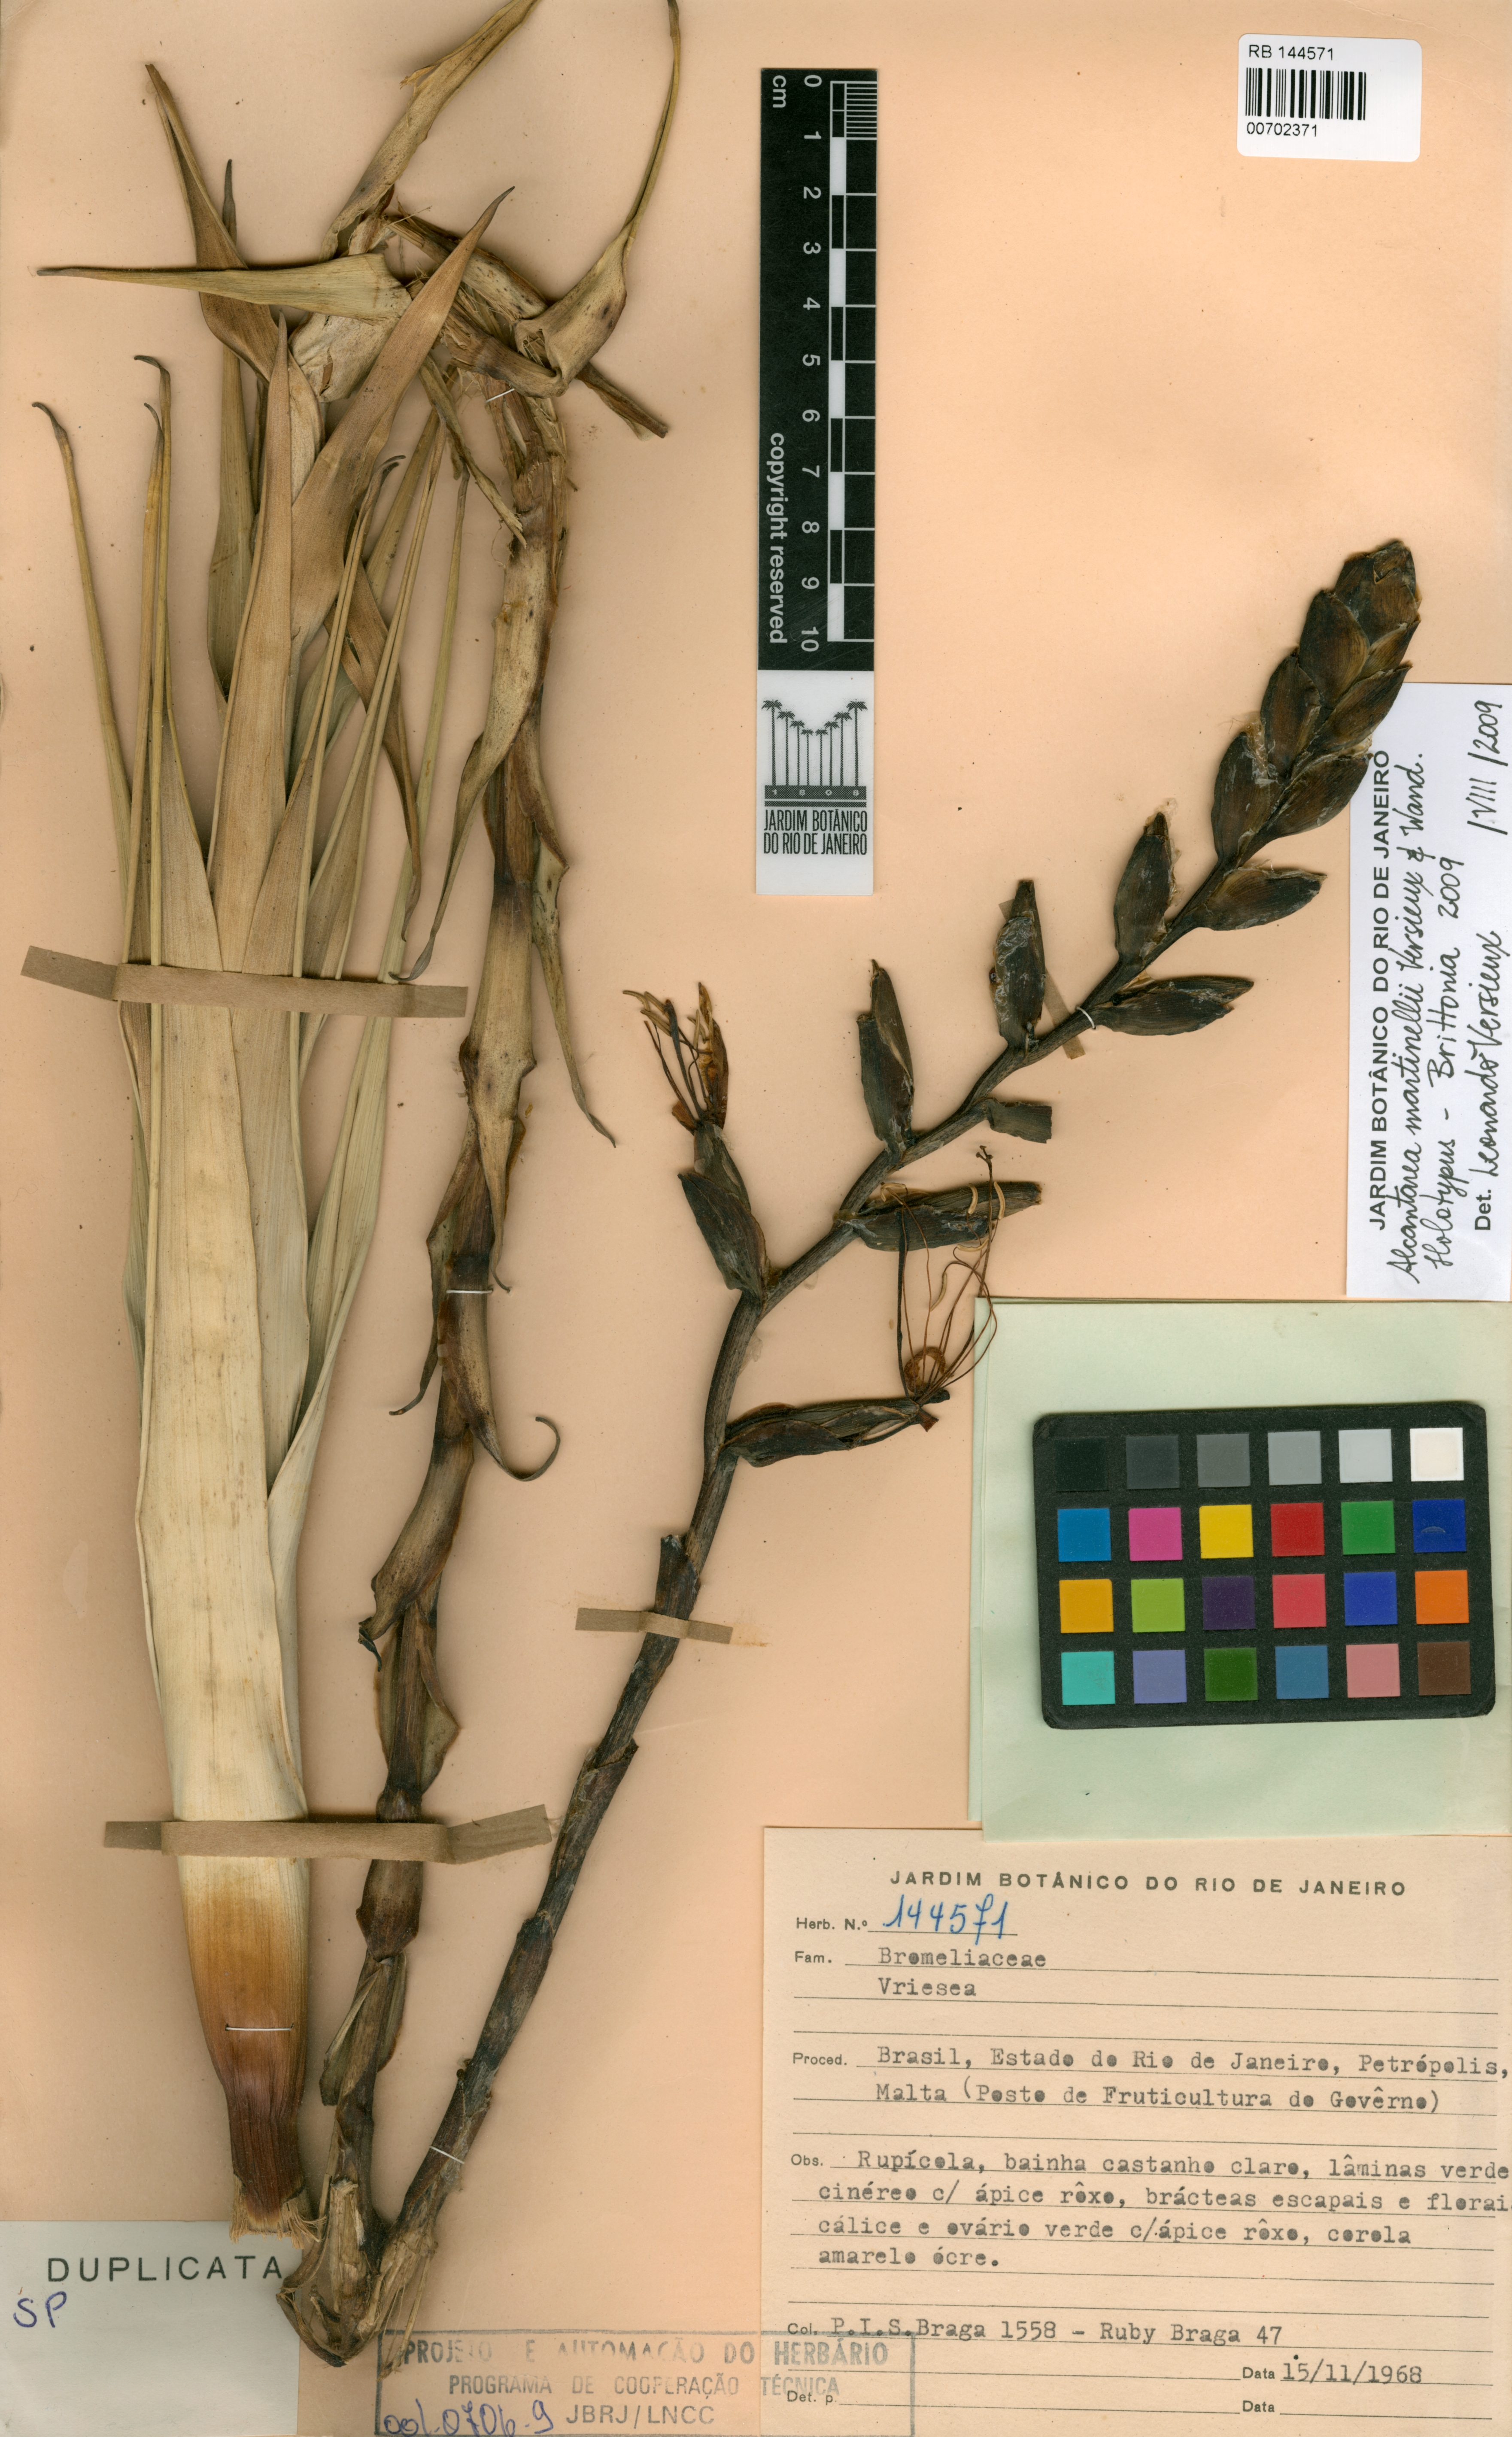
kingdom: Plantae
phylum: Tracheophyta
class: Liliopsida
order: Poales
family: Bromeliaceae
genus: Alcantarea
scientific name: Alcantarea martinellii
